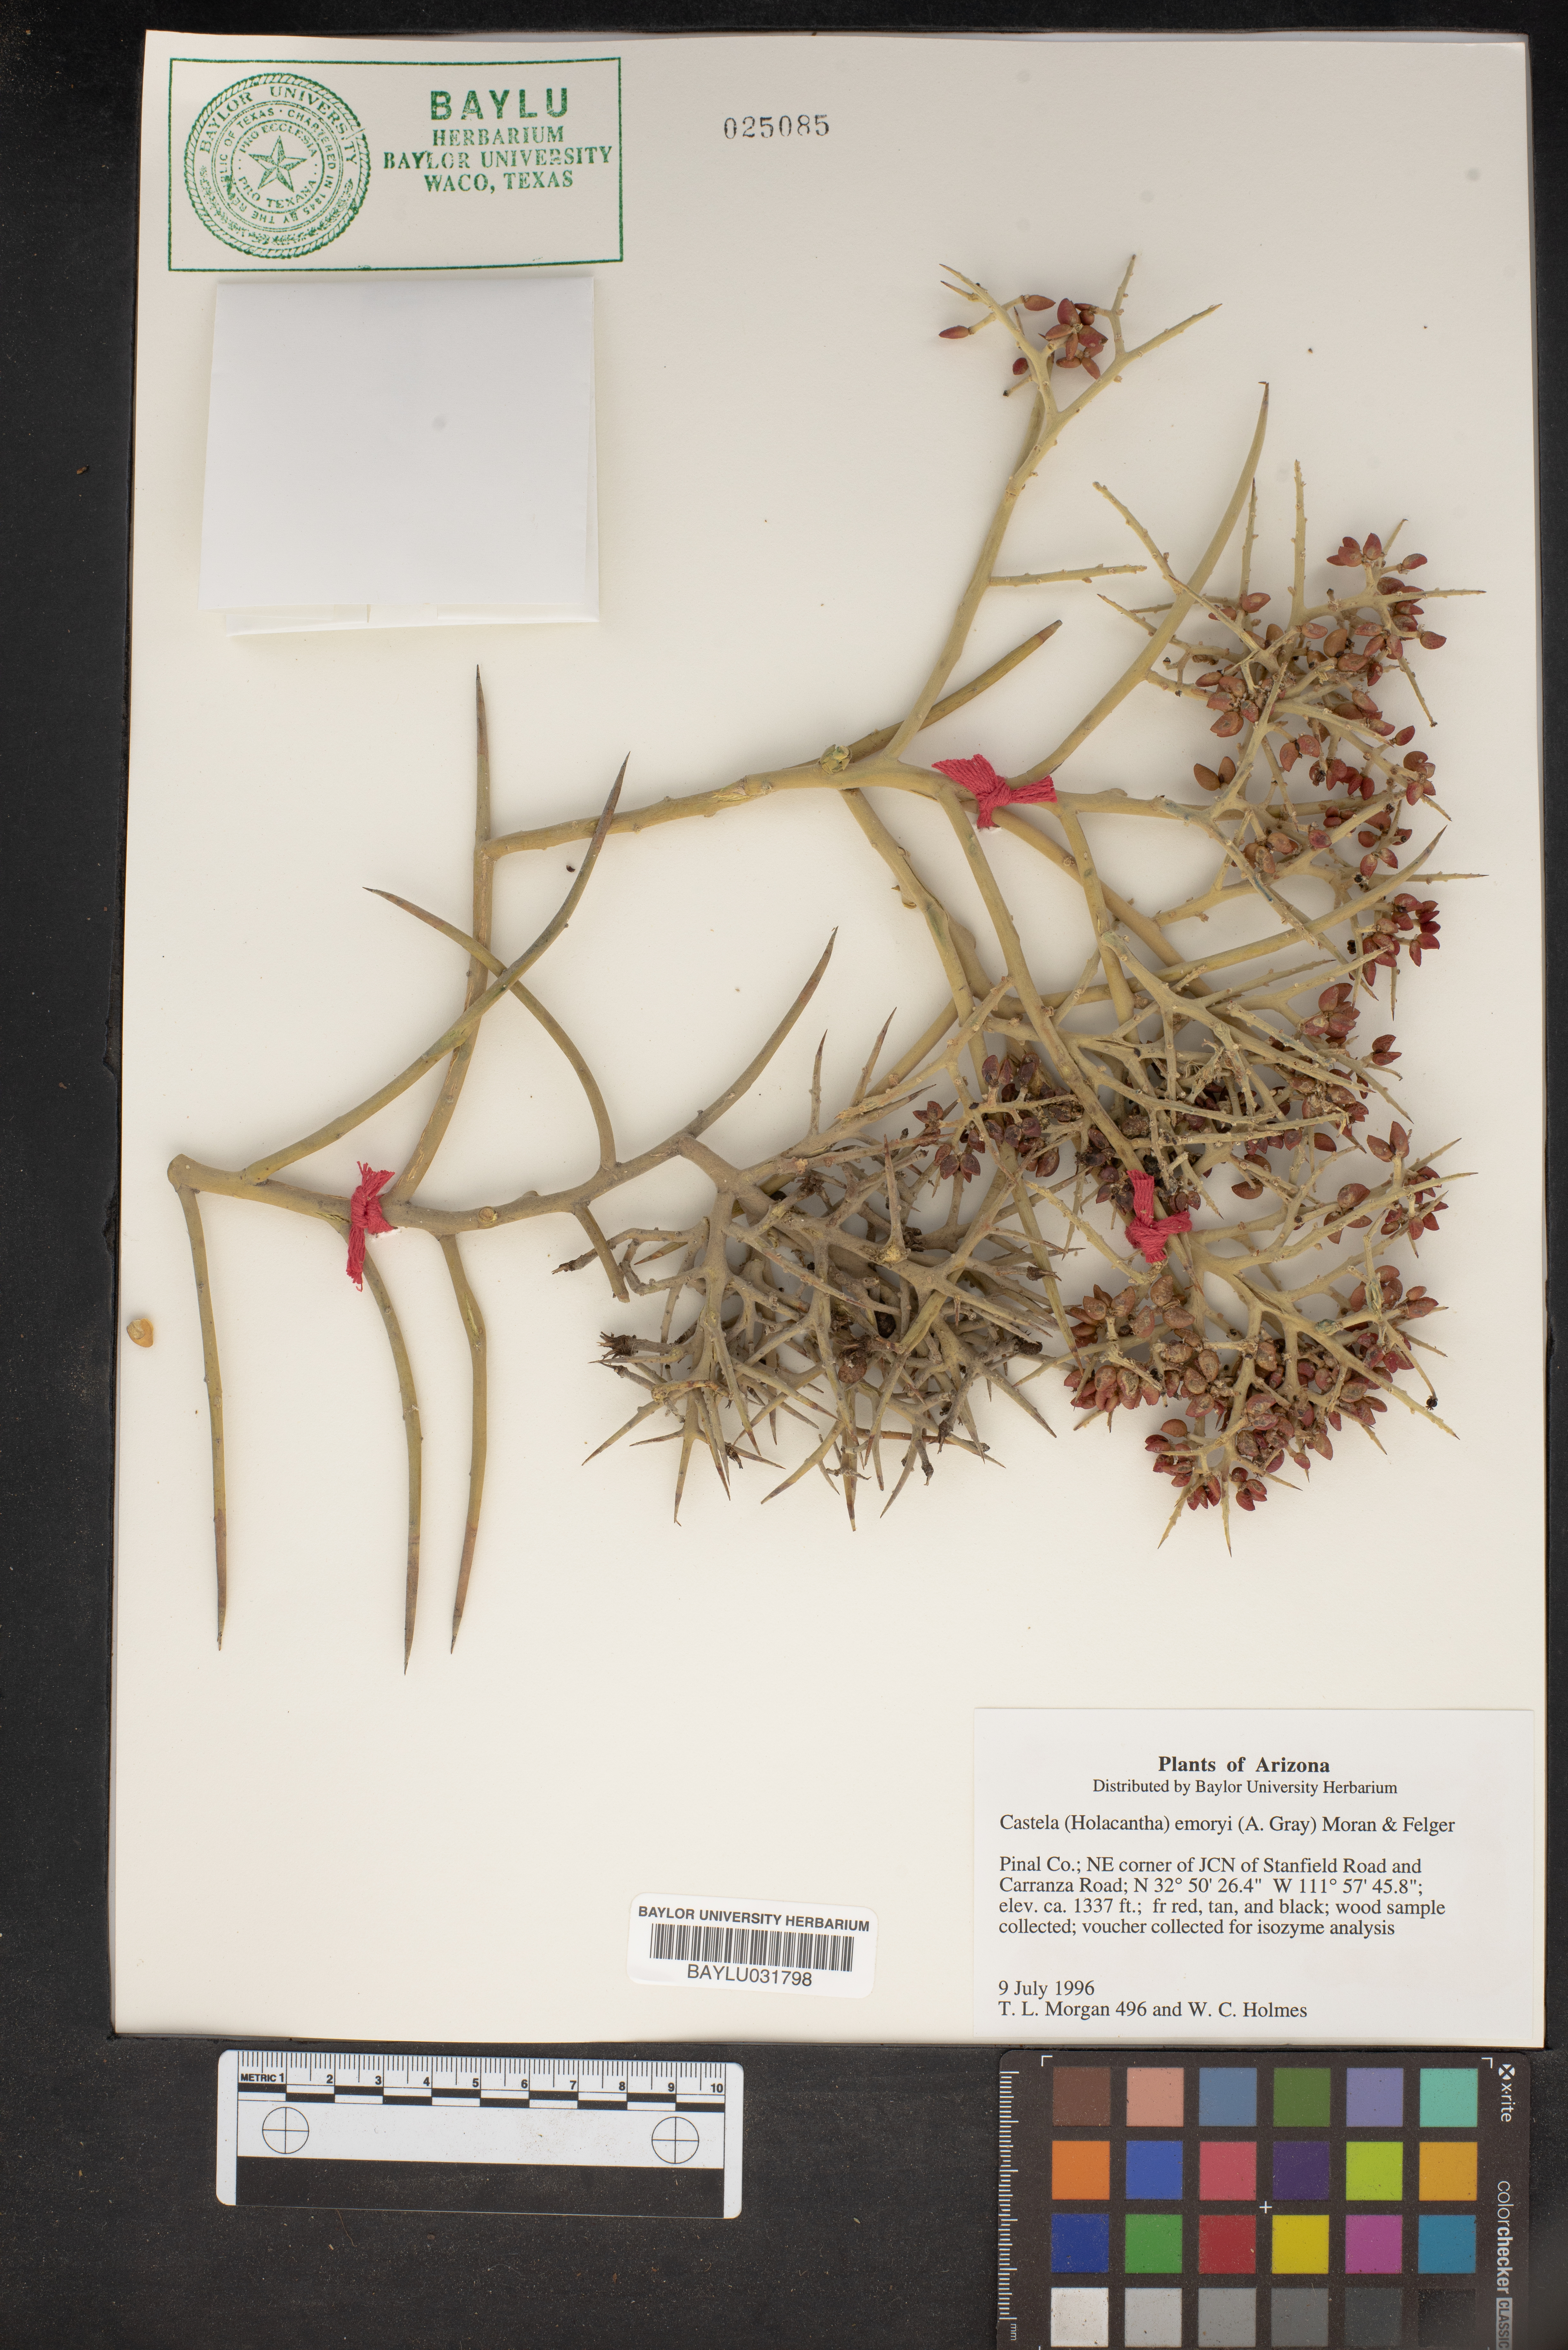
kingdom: Plantae
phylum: Tracheophyta
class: Magnoliopsida
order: Sapindales
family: Simaroubaceae
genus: Holacantha
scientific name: Holacantha emoryi
